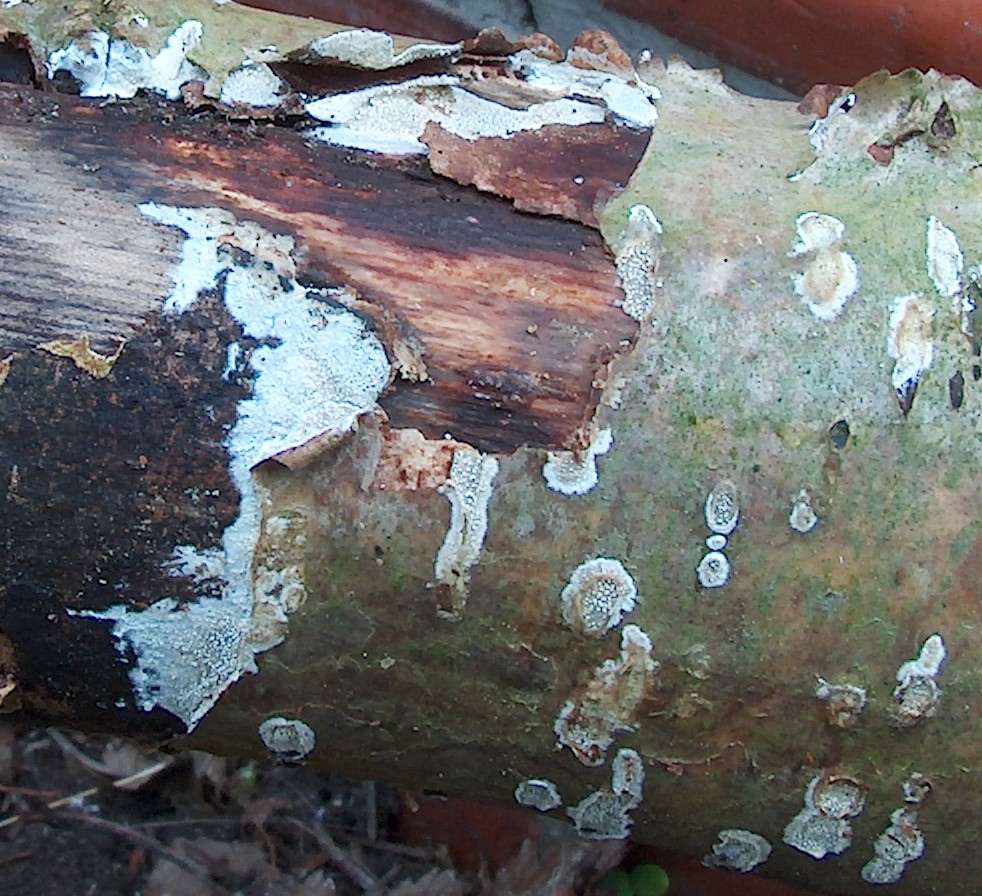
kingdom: Fungi
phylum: Basidiomycota
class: Agaricomycetes
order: Corticiales
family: Corticiaceae
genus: Lyomyces
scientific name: Lyomyces crustosus
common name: vortet hyldehinde
